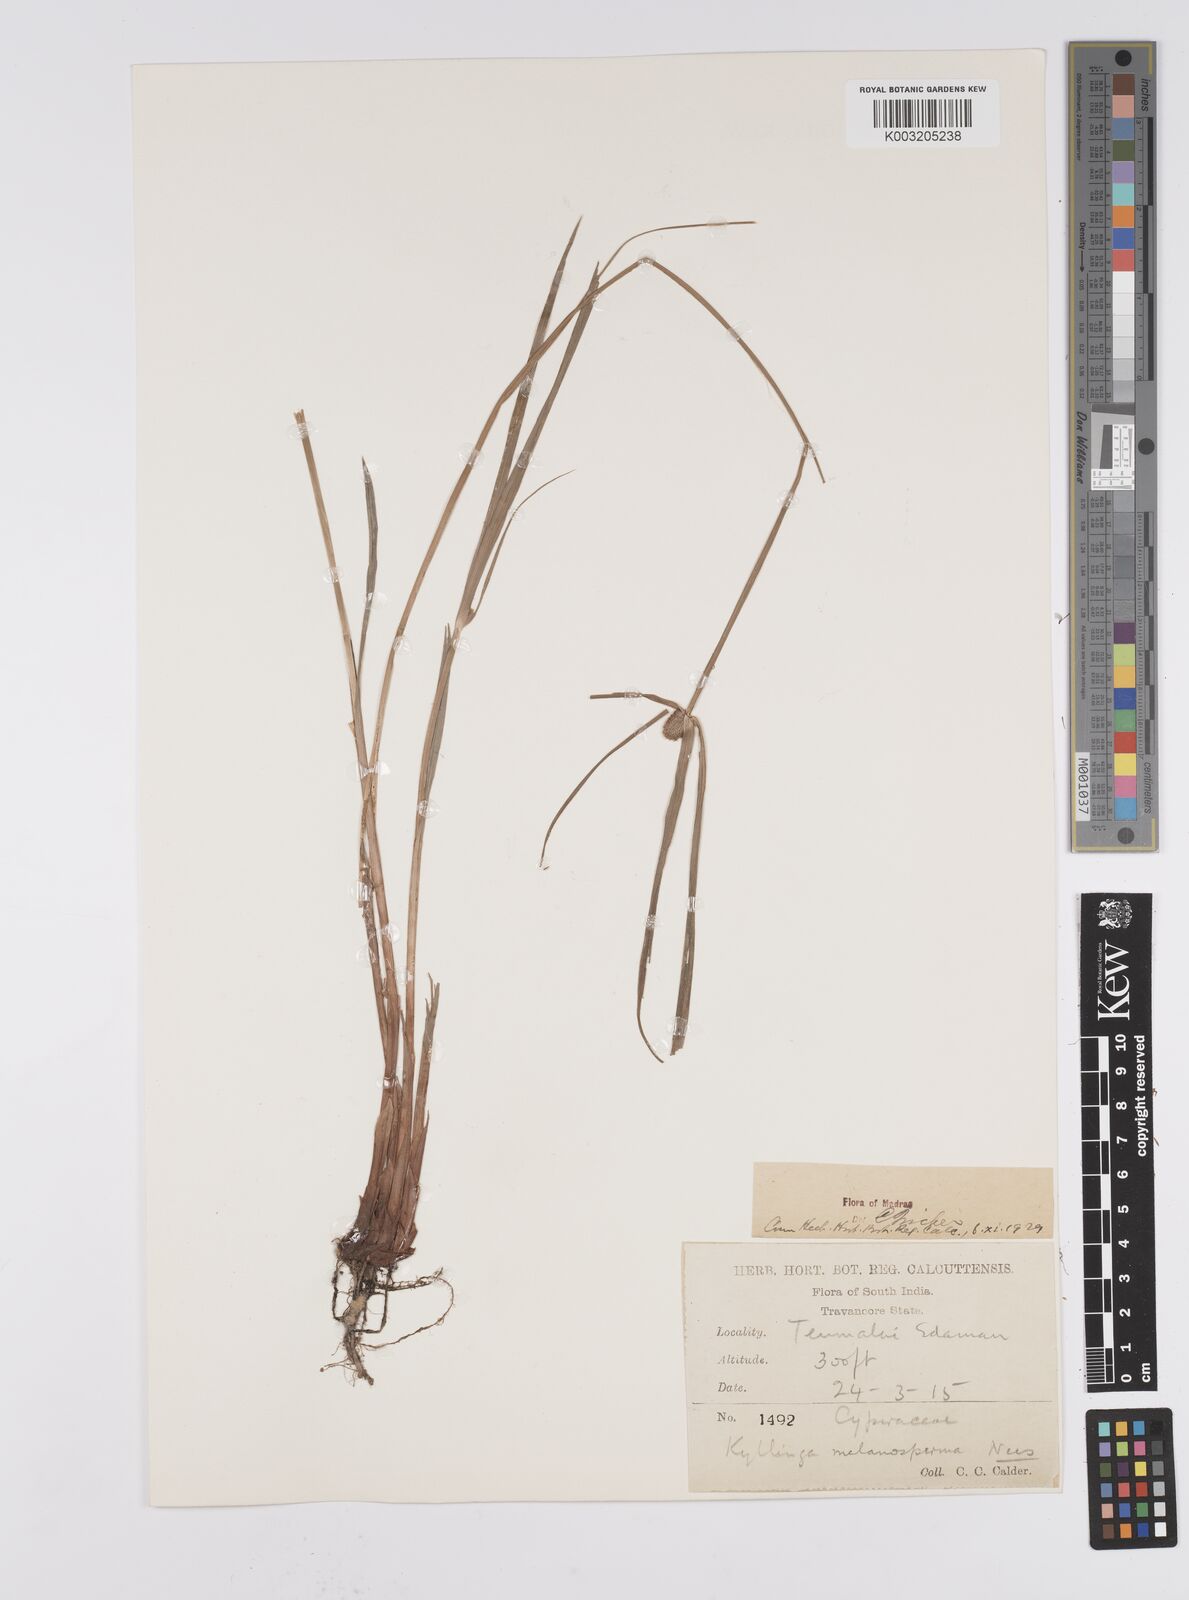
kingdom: Plantae
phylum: Tracheophyta
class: Liliopsida
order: Poales
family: Cyperaceae
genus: Cyperus
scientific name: Cyperus melanospermus
